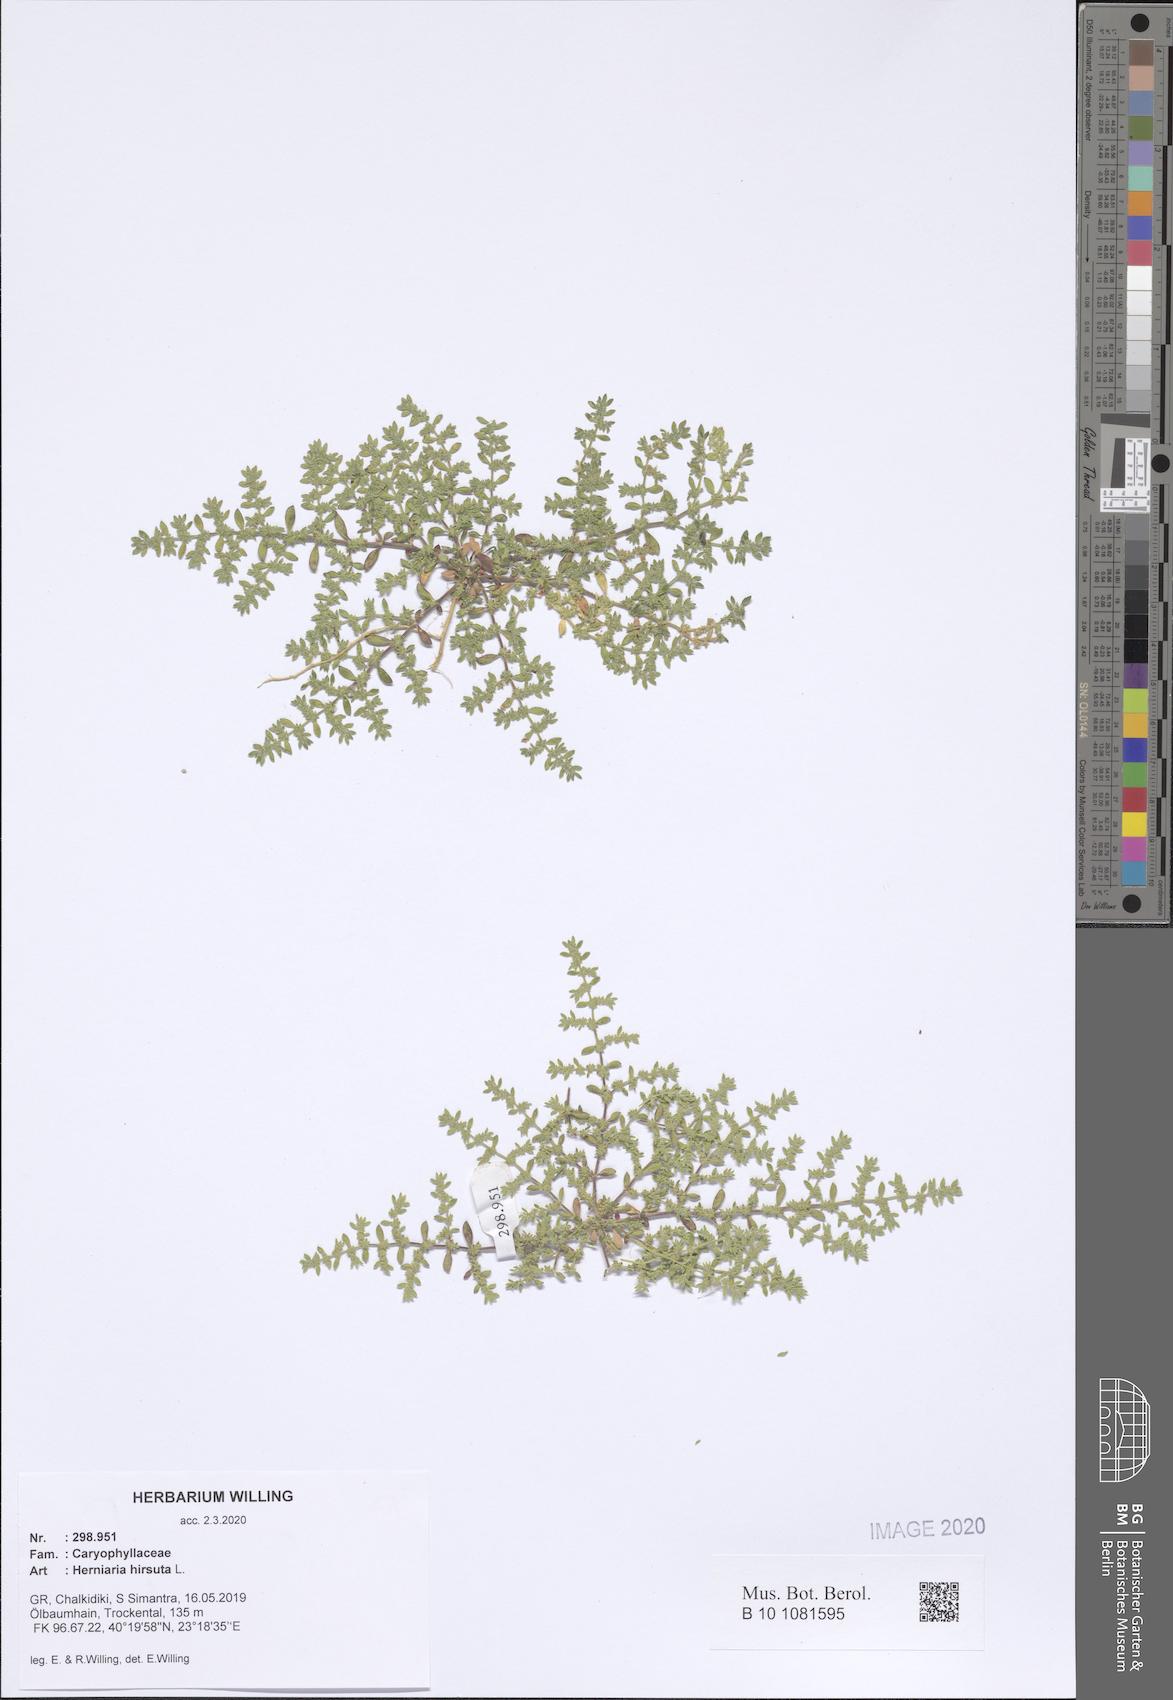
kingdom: Plantae
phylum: Tracheophyta
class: Magnoliopsida
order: Caryophyllales
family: Caryophyllaceae
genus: Herniaria
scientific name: Herniaria hirsuta
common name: Hairy rupturewort
